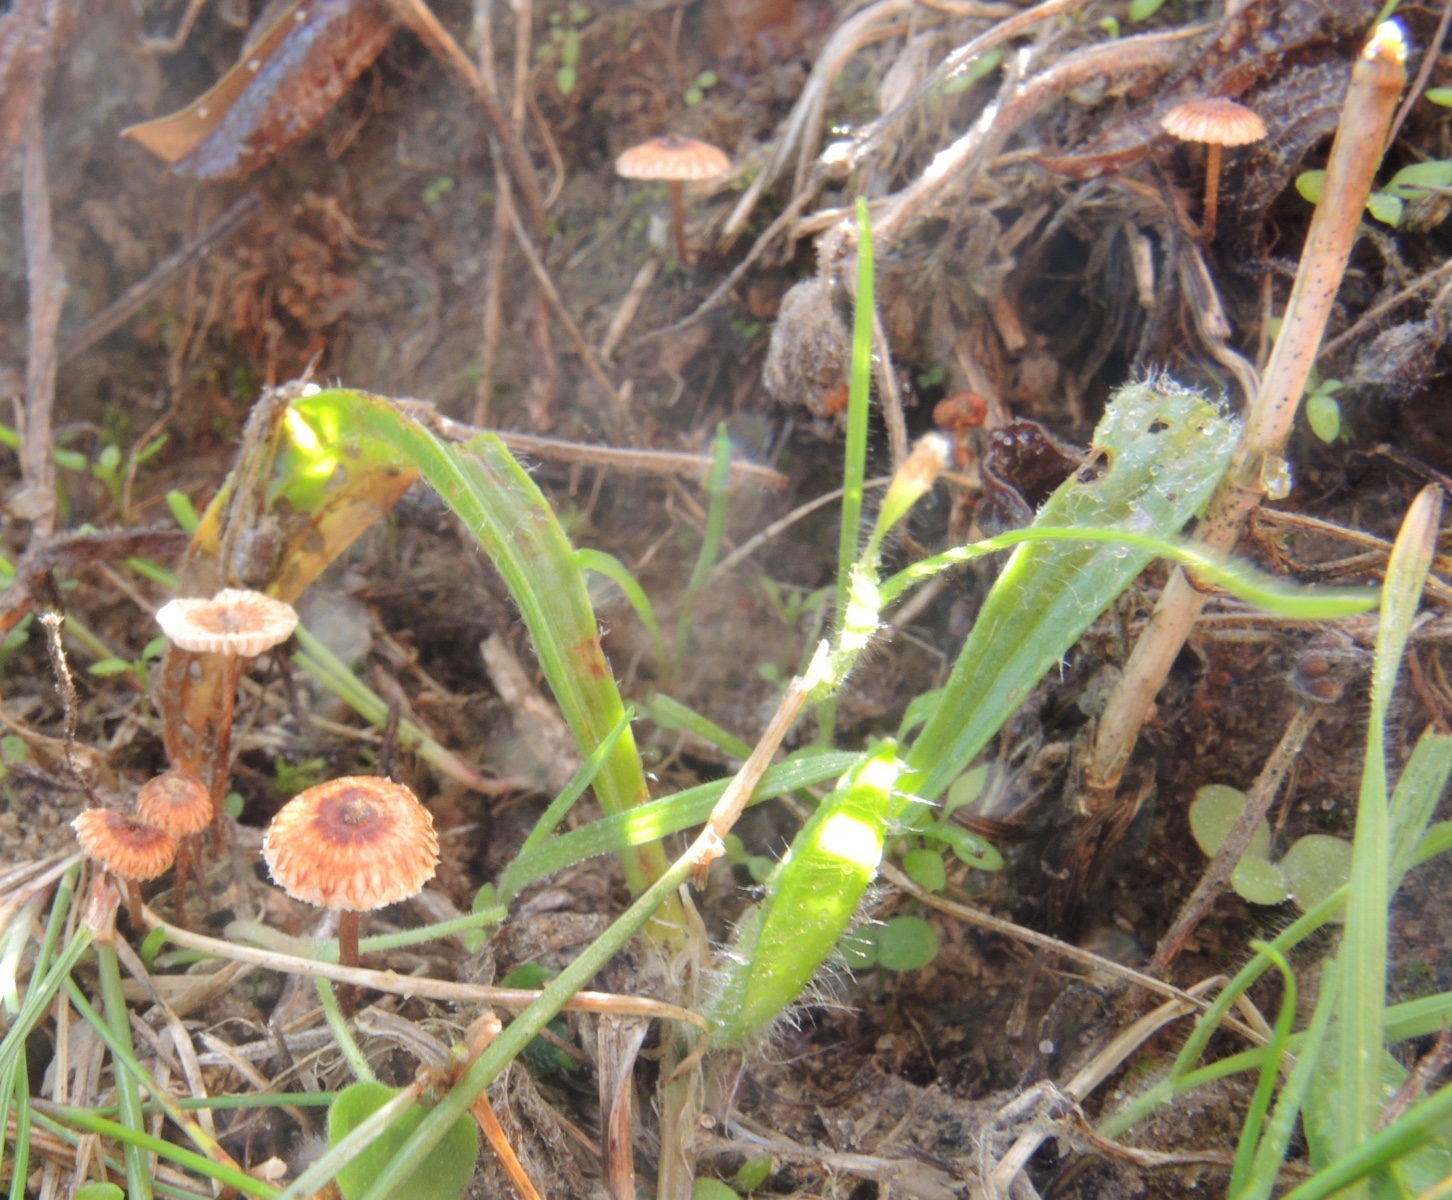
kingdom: Fungi
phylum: Basidiomycota
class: Agaricomycetes
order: Agaricales
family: Marasmiaceae
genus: Crinipellis
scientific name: Crinipellis scabella
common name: børstefod
